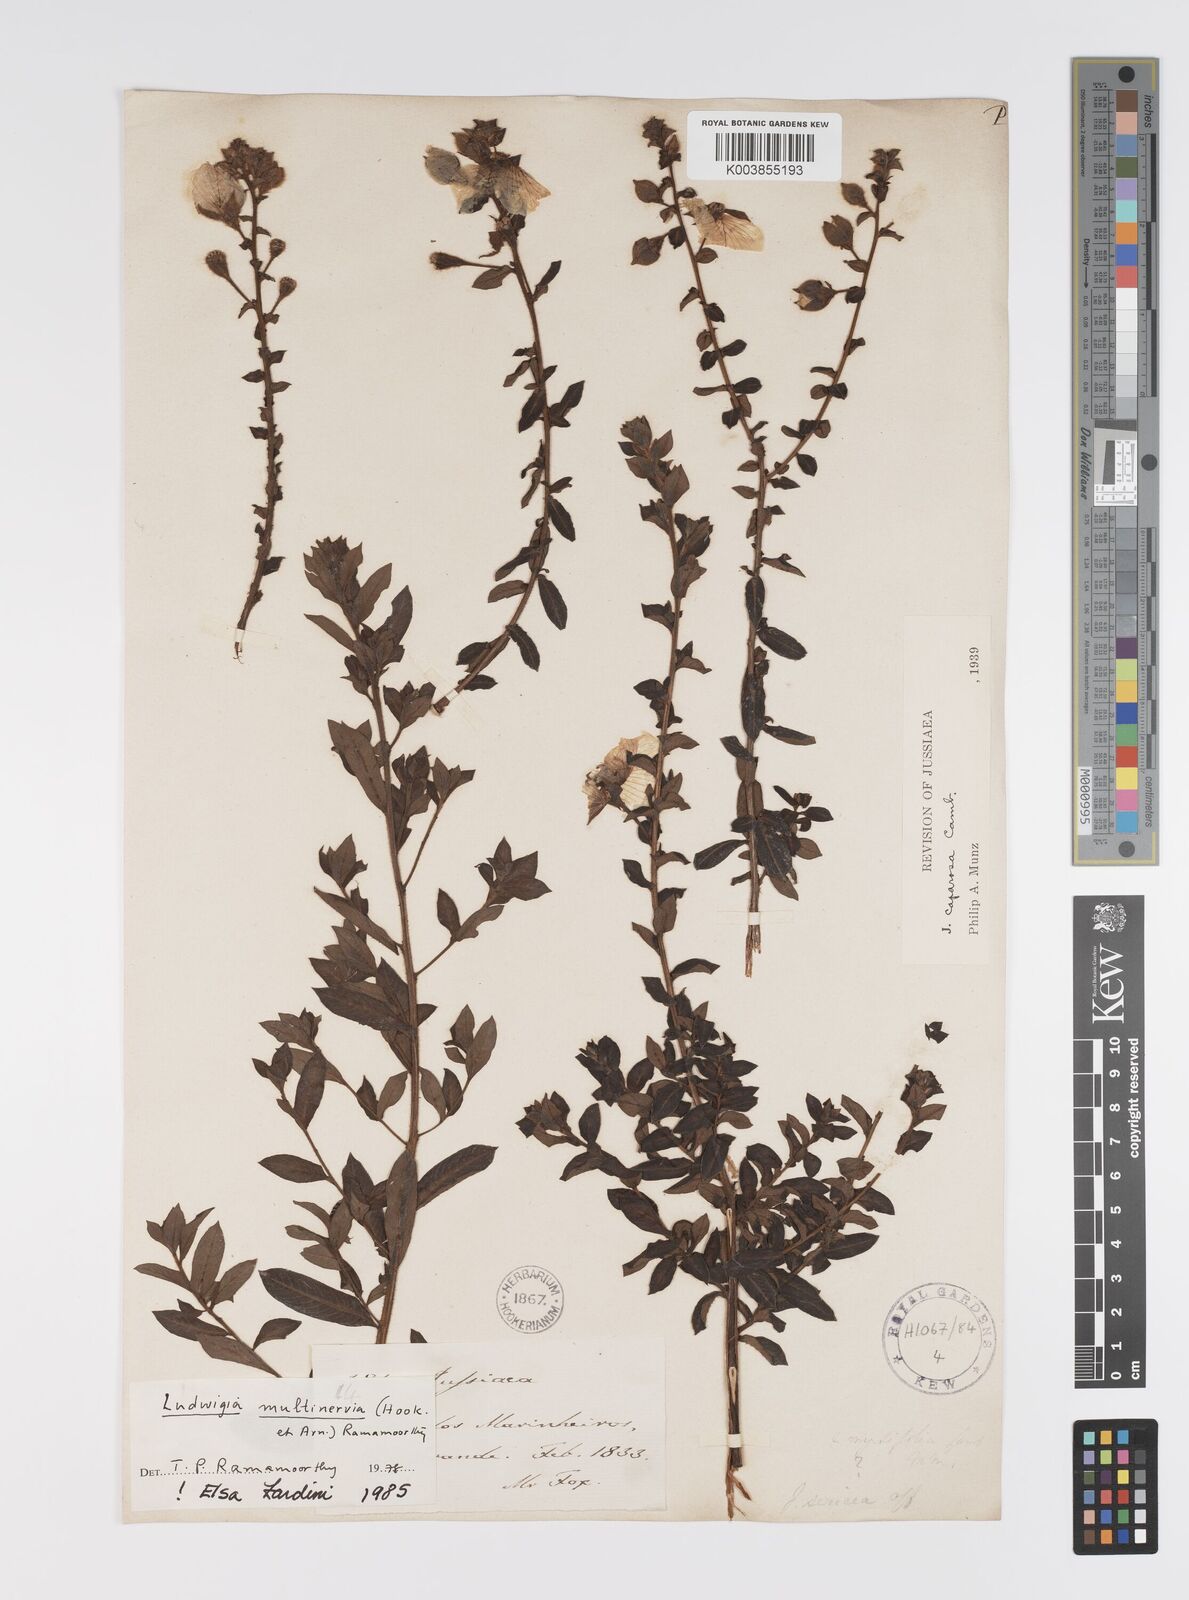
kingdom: Plantae
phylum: Tracheophyta
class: Magnoliopsida
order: Myrtales
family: Onagraceae
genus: Ludwigia
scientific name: Ludwigia
